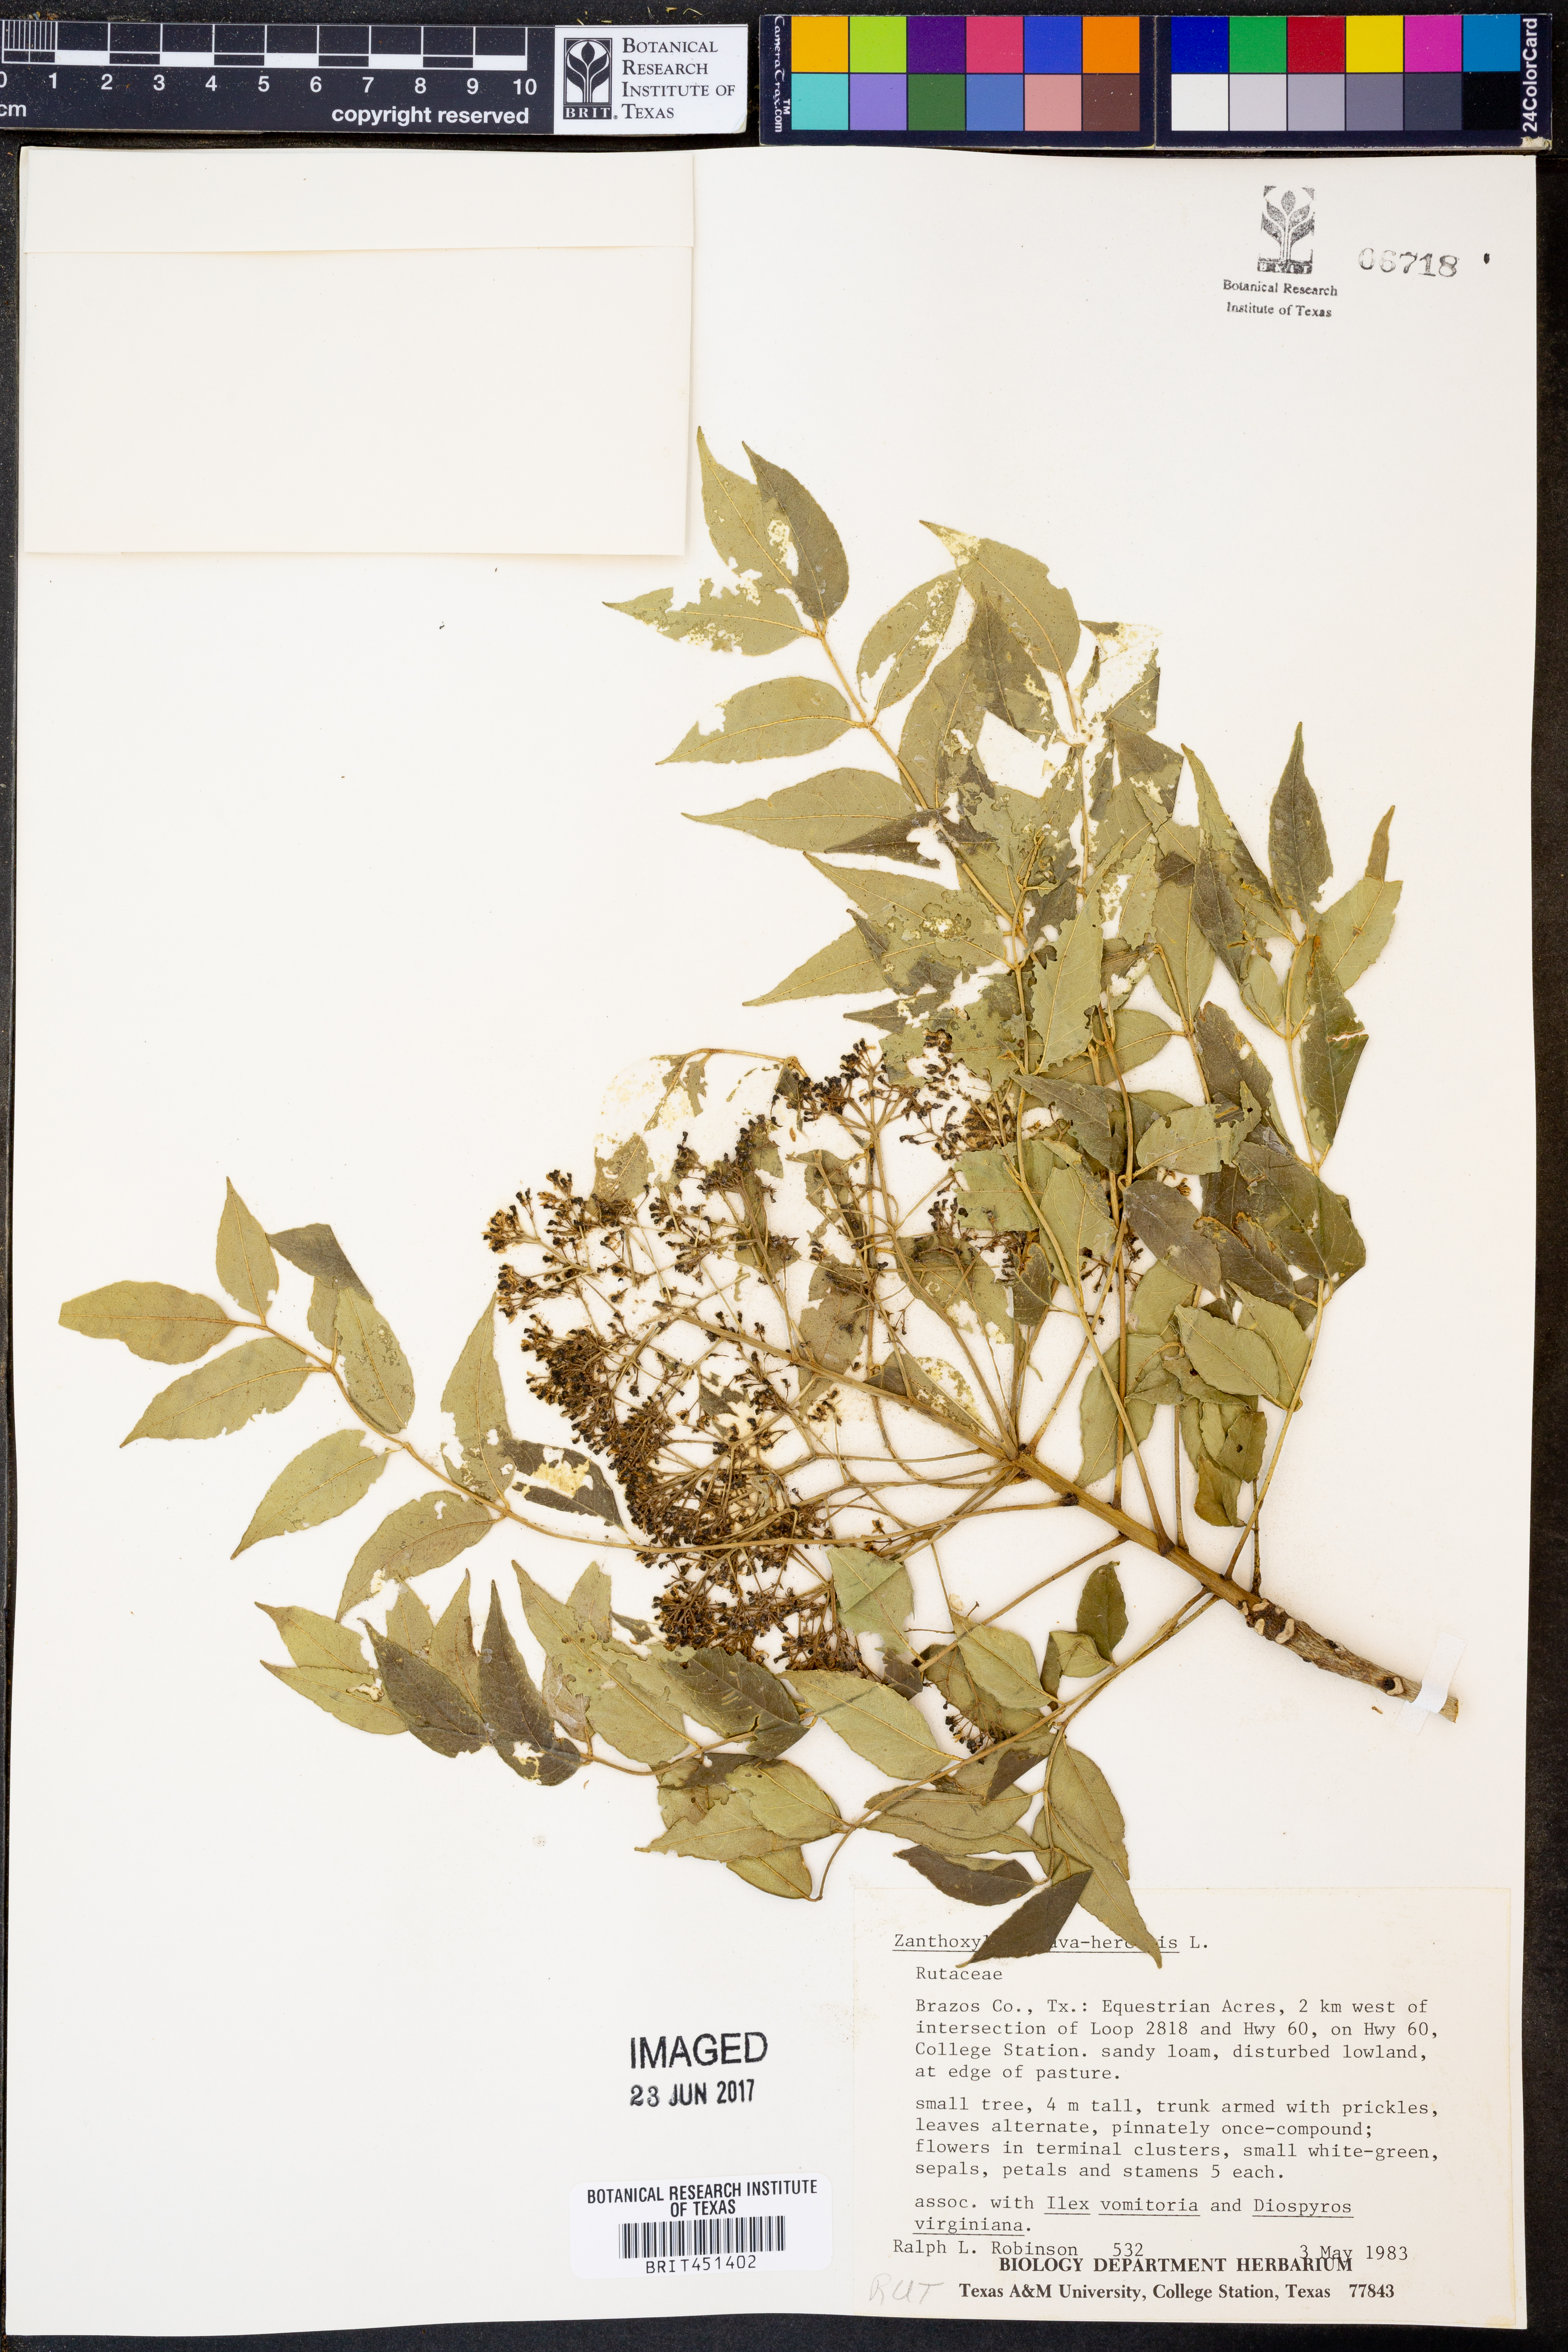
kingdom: Plantae
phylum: Tracheophyta
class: Magnoliopsida
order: Sapindales
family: Rutaceae
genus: Zanthoxylum
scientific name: Zanthoxylum avicennae
